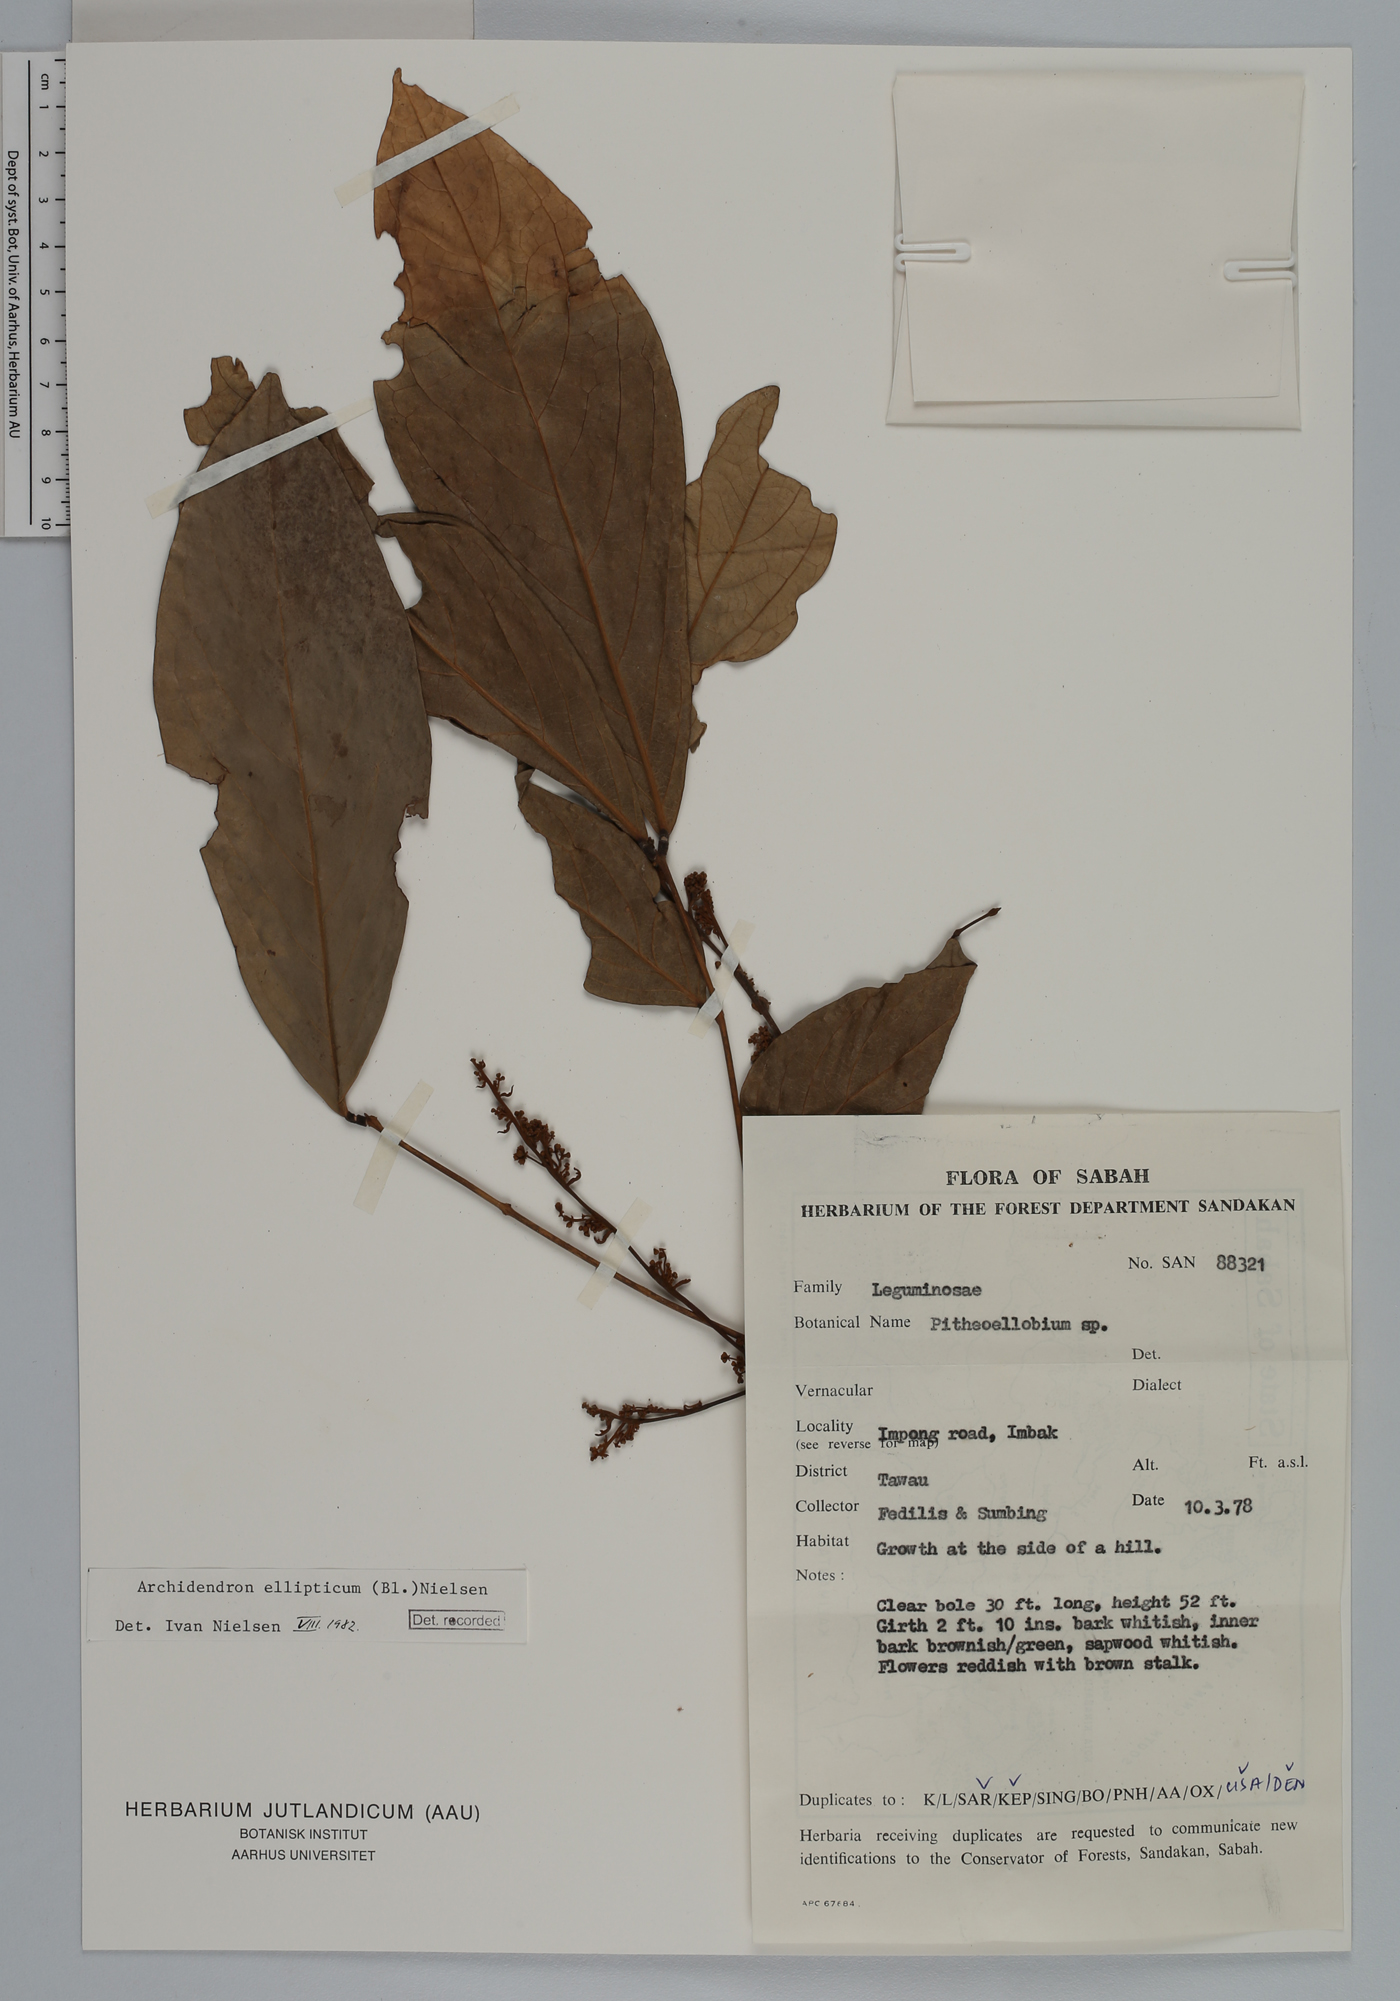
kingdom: Plantae
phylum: Tracheophyta
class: Magnoliopsida
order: Fabales
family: Fabaceae
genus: Archidendron
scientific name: Archidendron ellipticum
